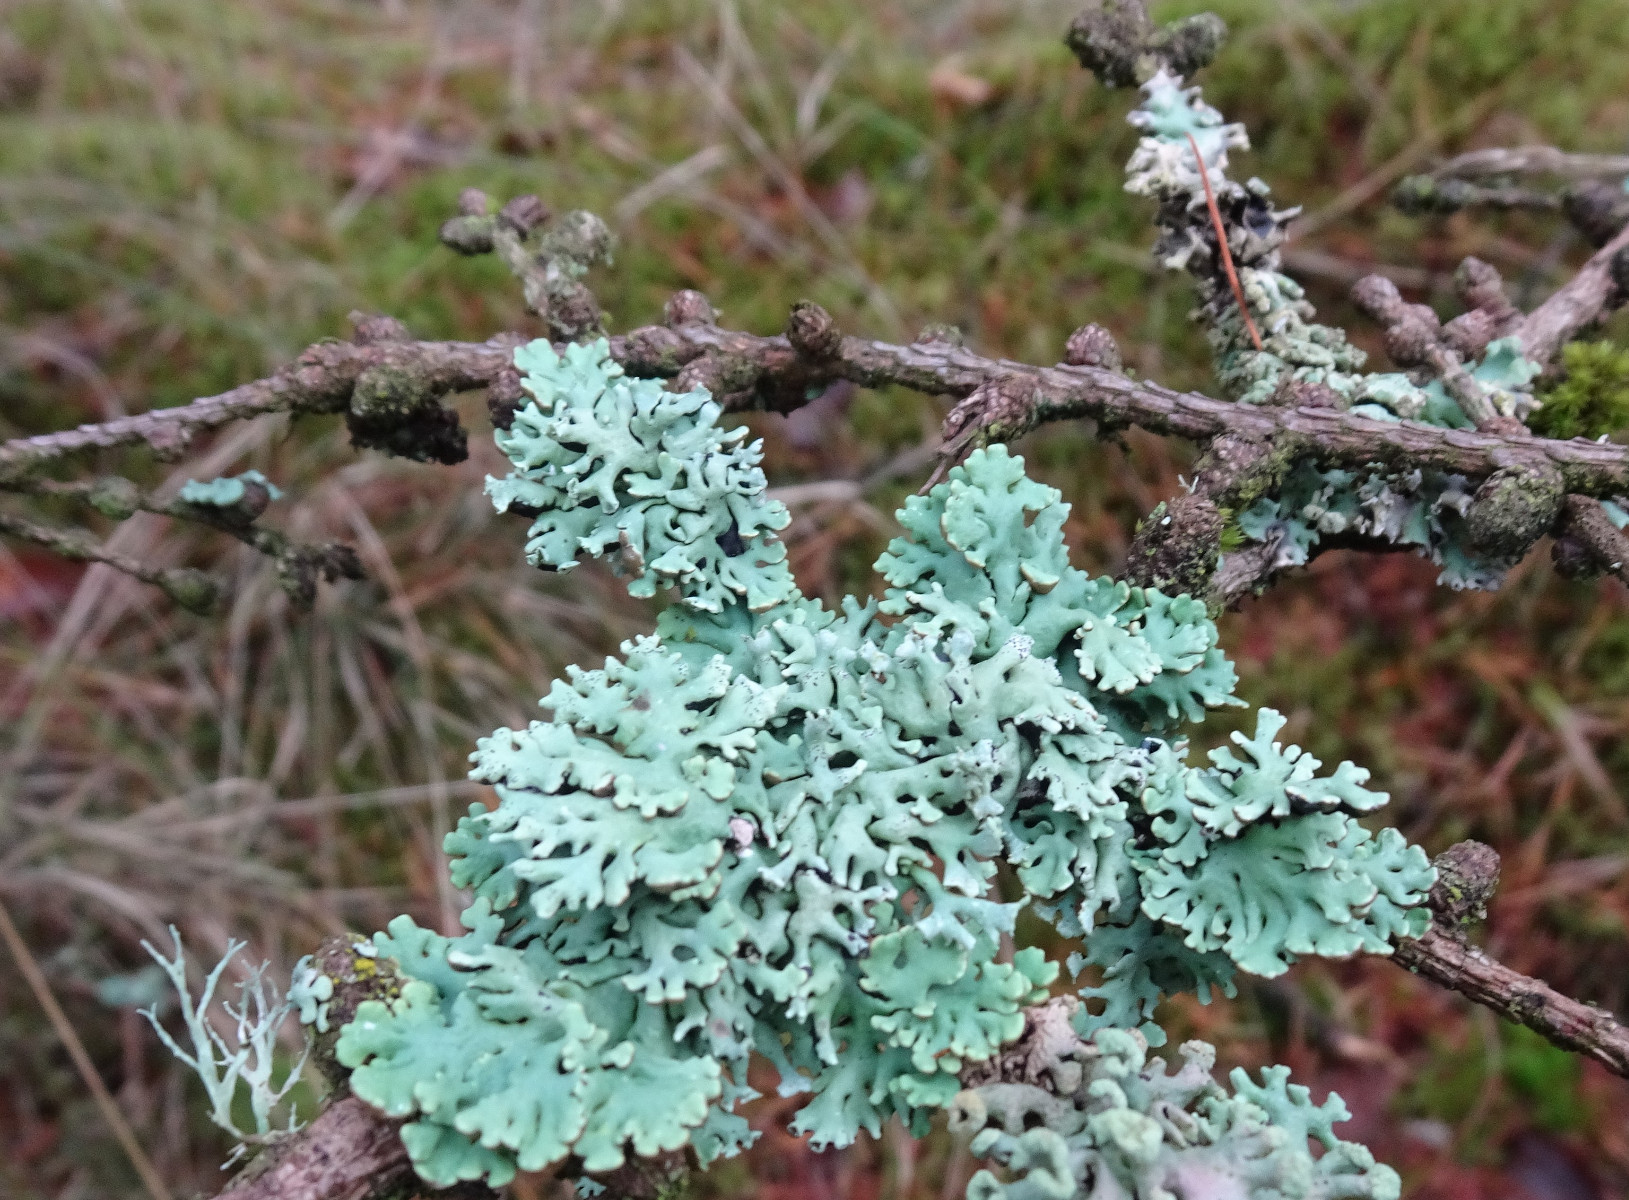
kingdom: Fungi
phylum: Ascomycota
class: Lecanoromycetes
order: Lecanorales
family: Parmeliaceae
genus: Hypogymnia
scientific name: Hypogymnia physodes
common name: almindelig kvistlav
